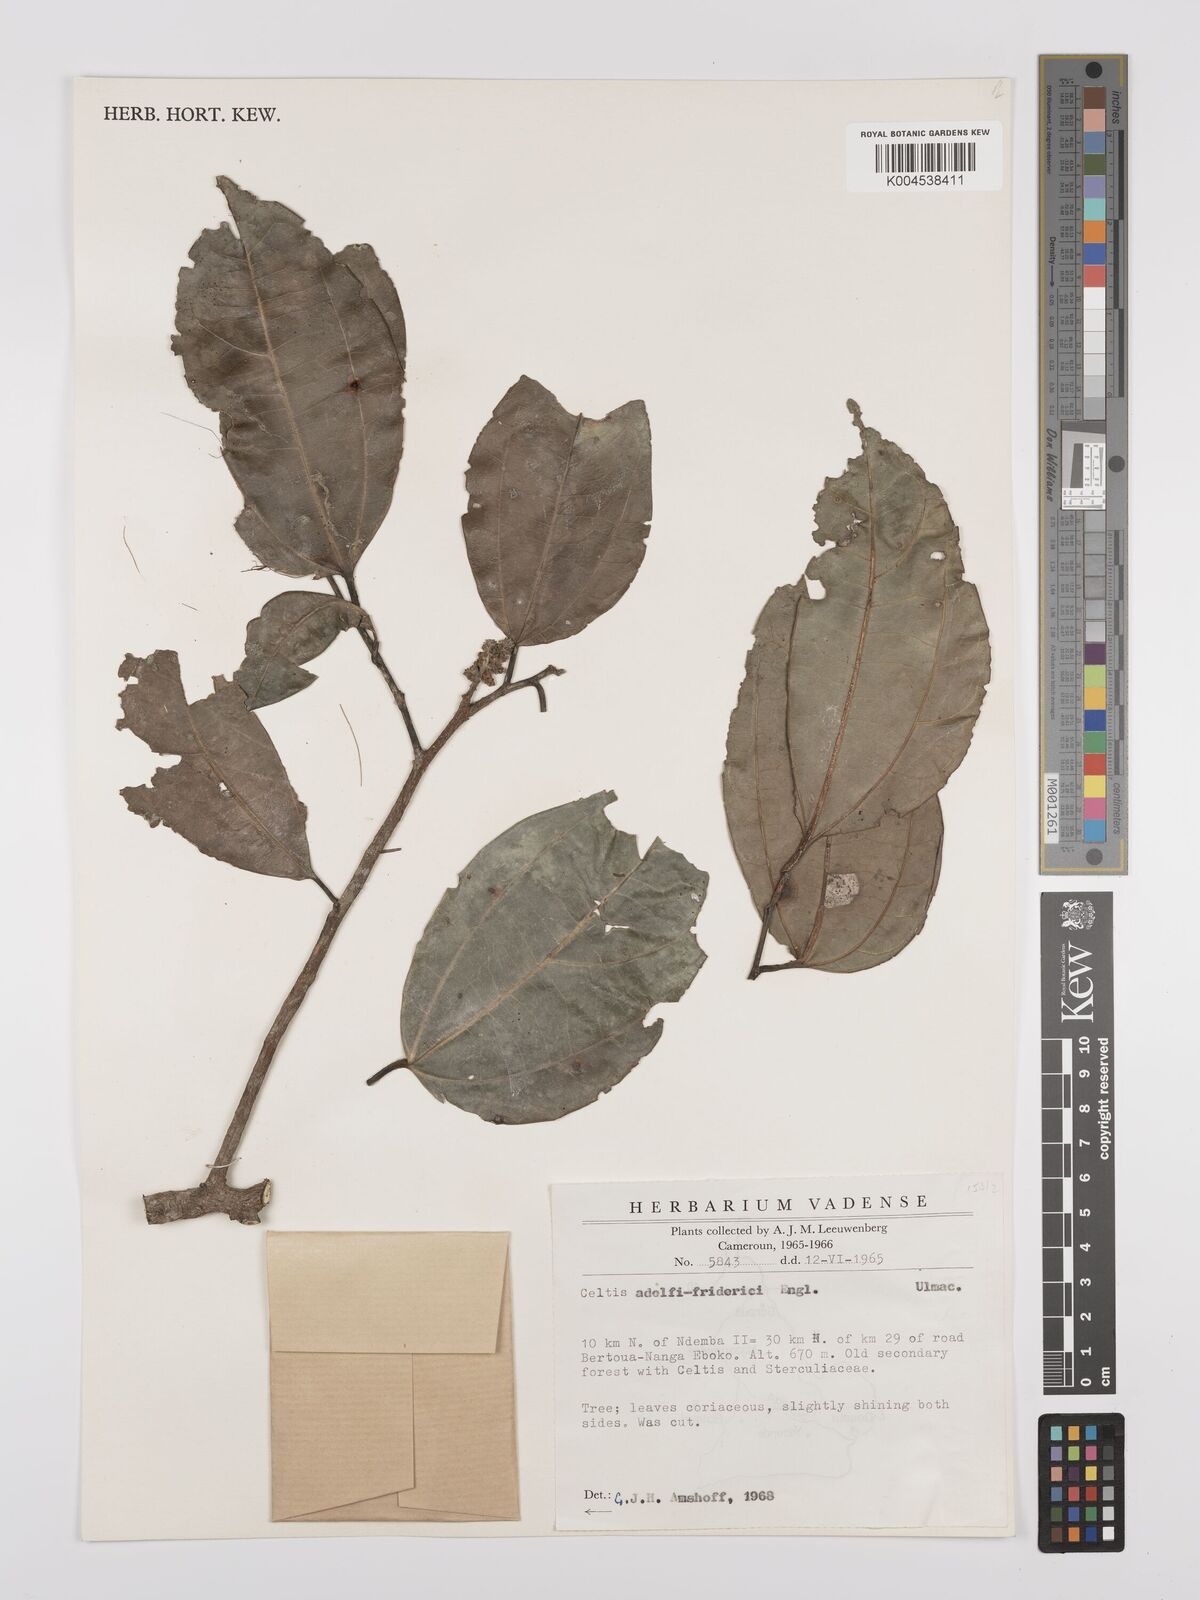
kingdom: Plantae
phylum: Tracheophyta
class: Magnoliopsida
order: Rosales
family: Cannabaceae
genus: Celtis
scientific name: Celtis adolfi-friderici
